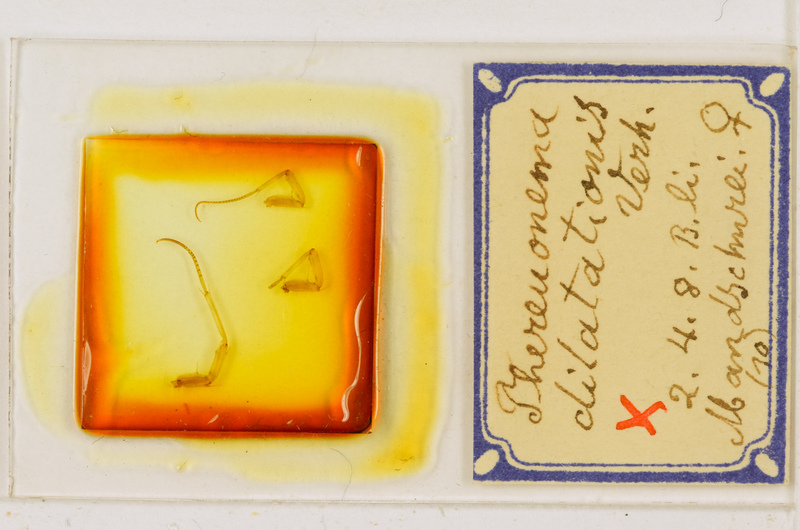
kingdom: Animalia
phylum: Arthropoda
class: Chilopoda
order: Scutigeromorpha
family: Scutigeridae
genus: Thereuonema
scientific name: Thereuonema tuberculata
